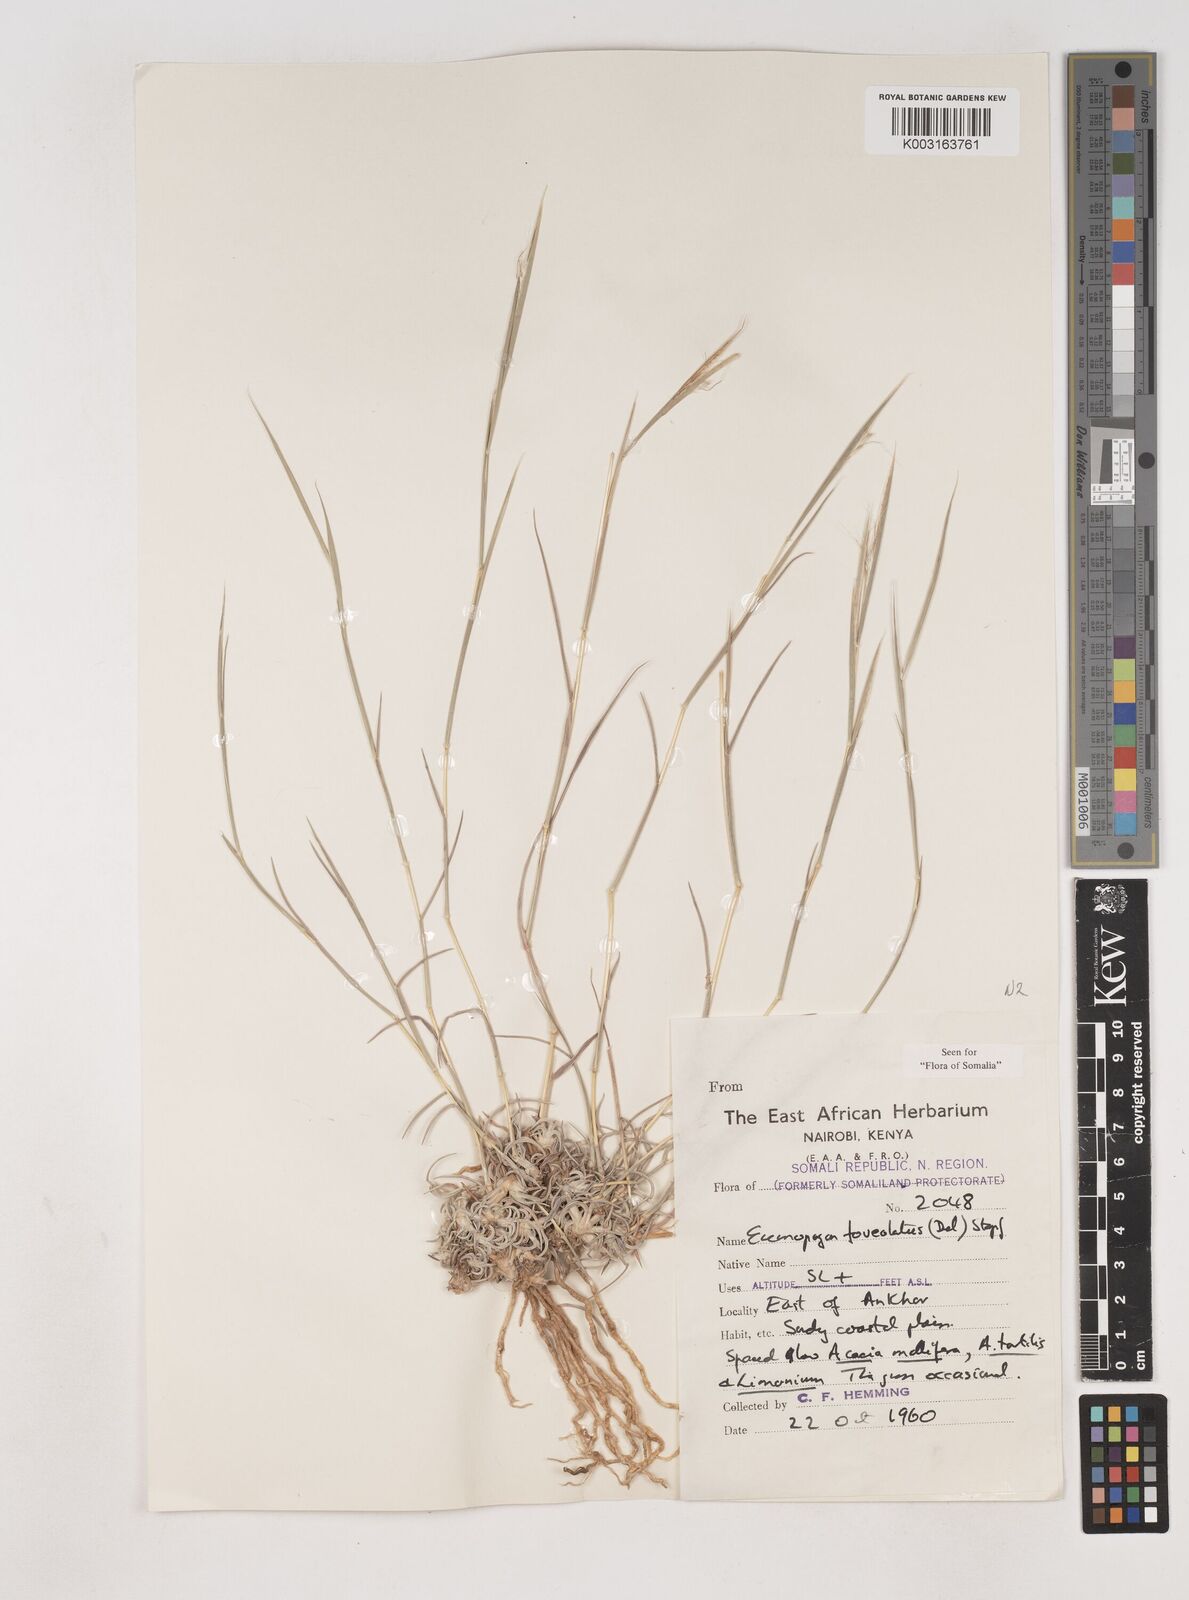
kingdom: Plantae
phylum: Tracheophyta
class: Liliopsida
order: Poales
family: Poaceae
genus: Dichanthium
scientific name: Dichanthium foveolatum
